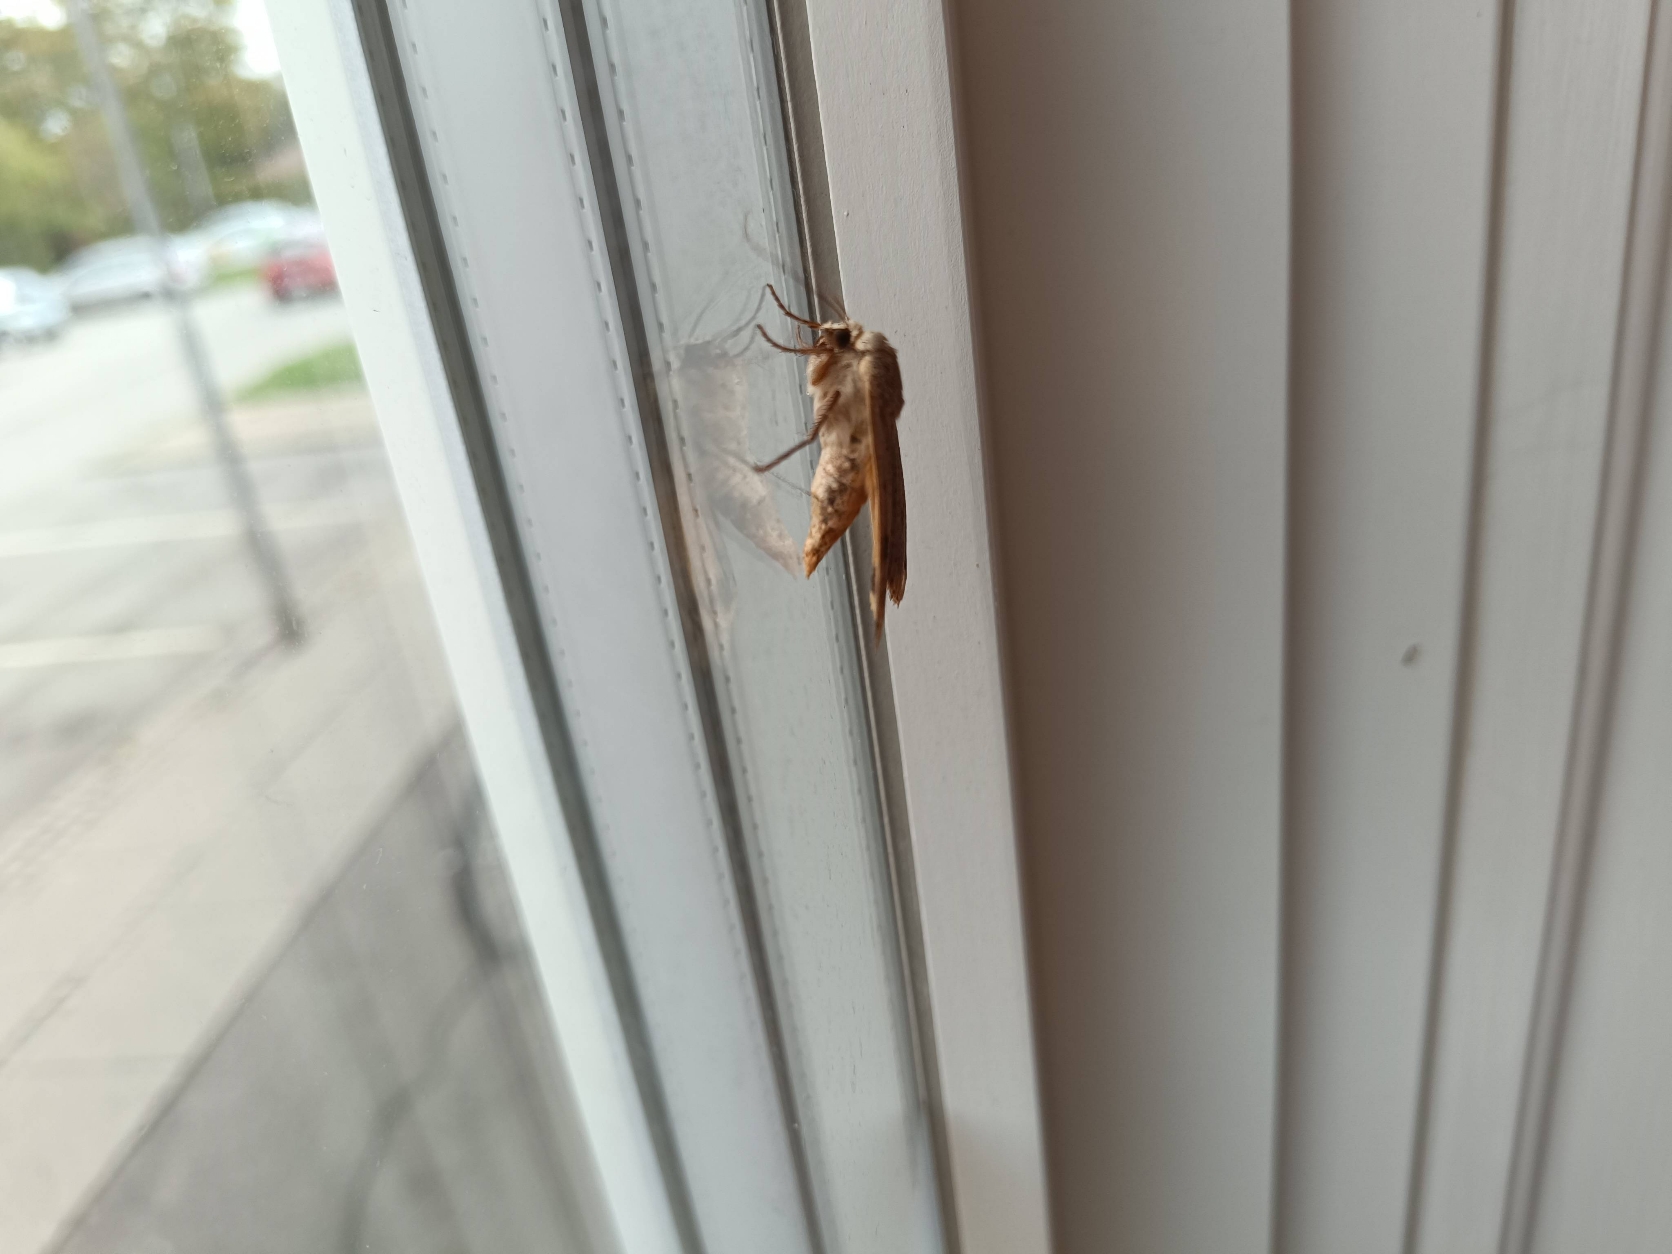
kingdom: Animalia
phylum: Arthropoda
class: Insecta
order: Lepidoptera
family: Noctuidae
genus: Noctua
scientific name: Noctua pronuba
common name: Stor smutugle
